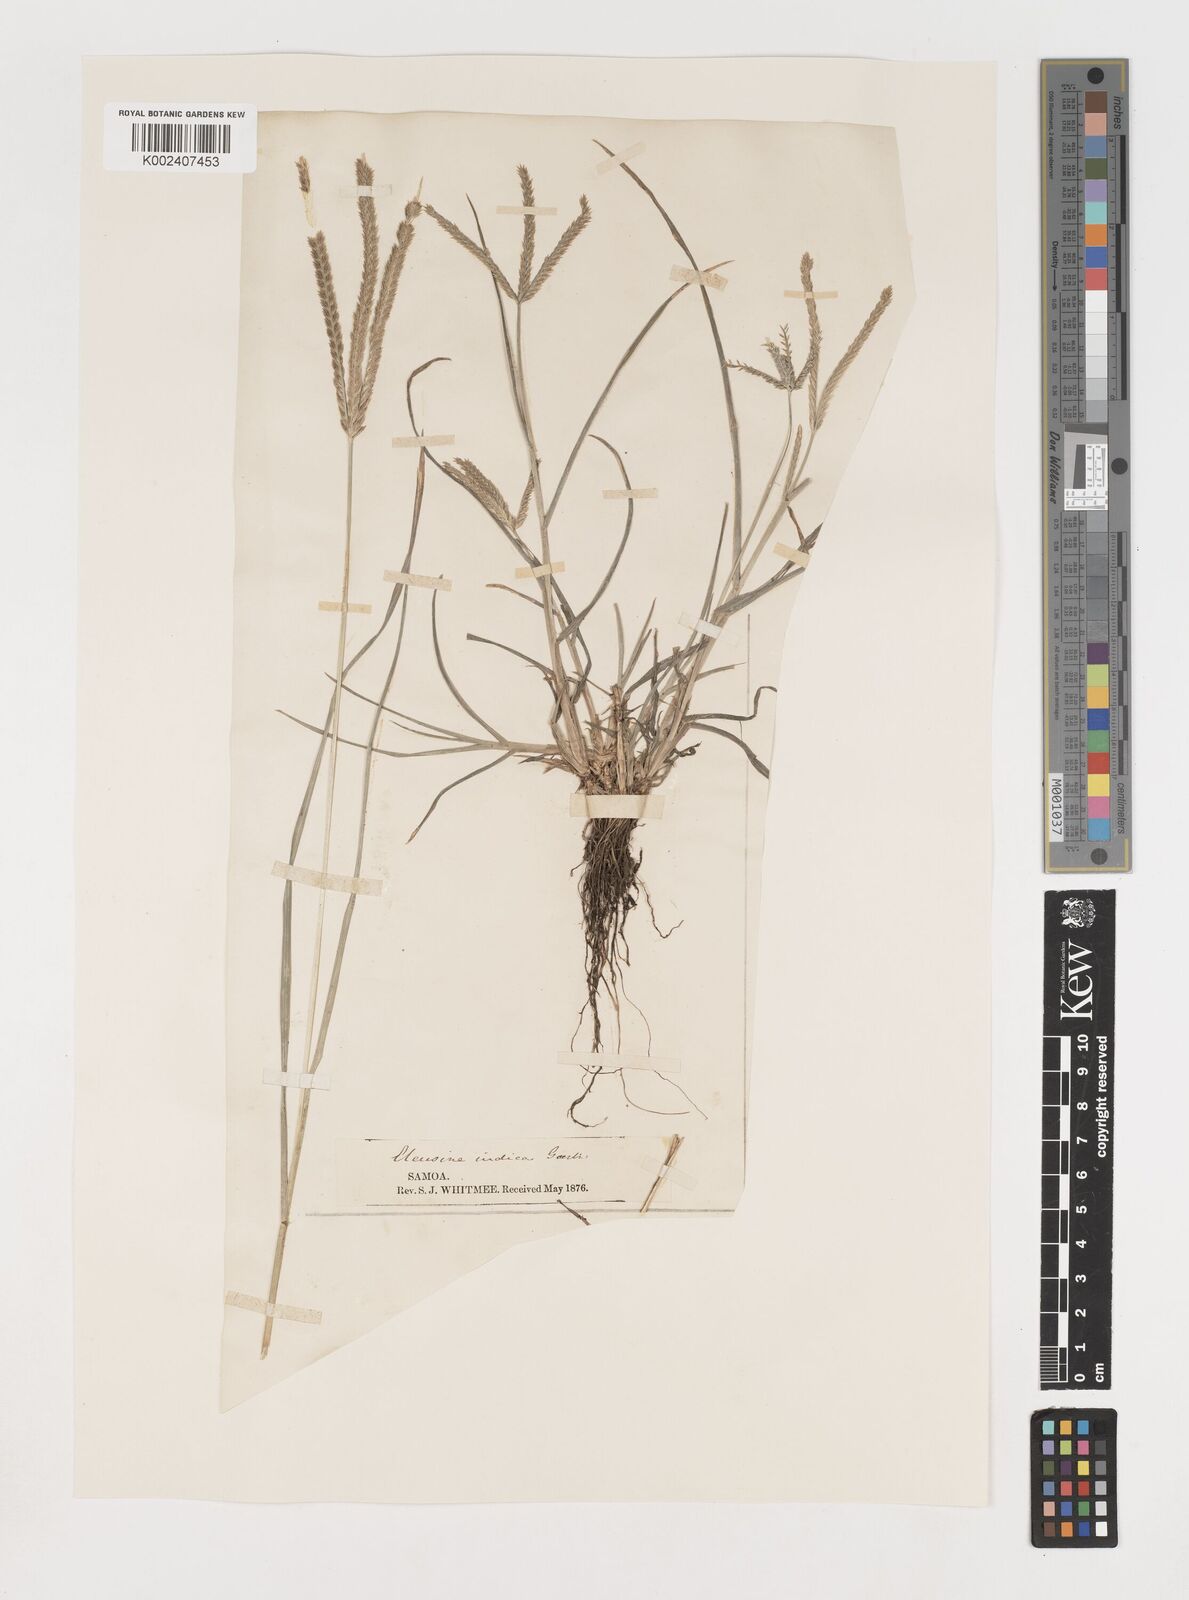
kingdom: Plantae
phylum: Tracheophyta
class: Liliopsida
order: Poales
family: Poaceae
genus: Eleusine
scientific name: Eleusine indica
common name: Yard-grass
